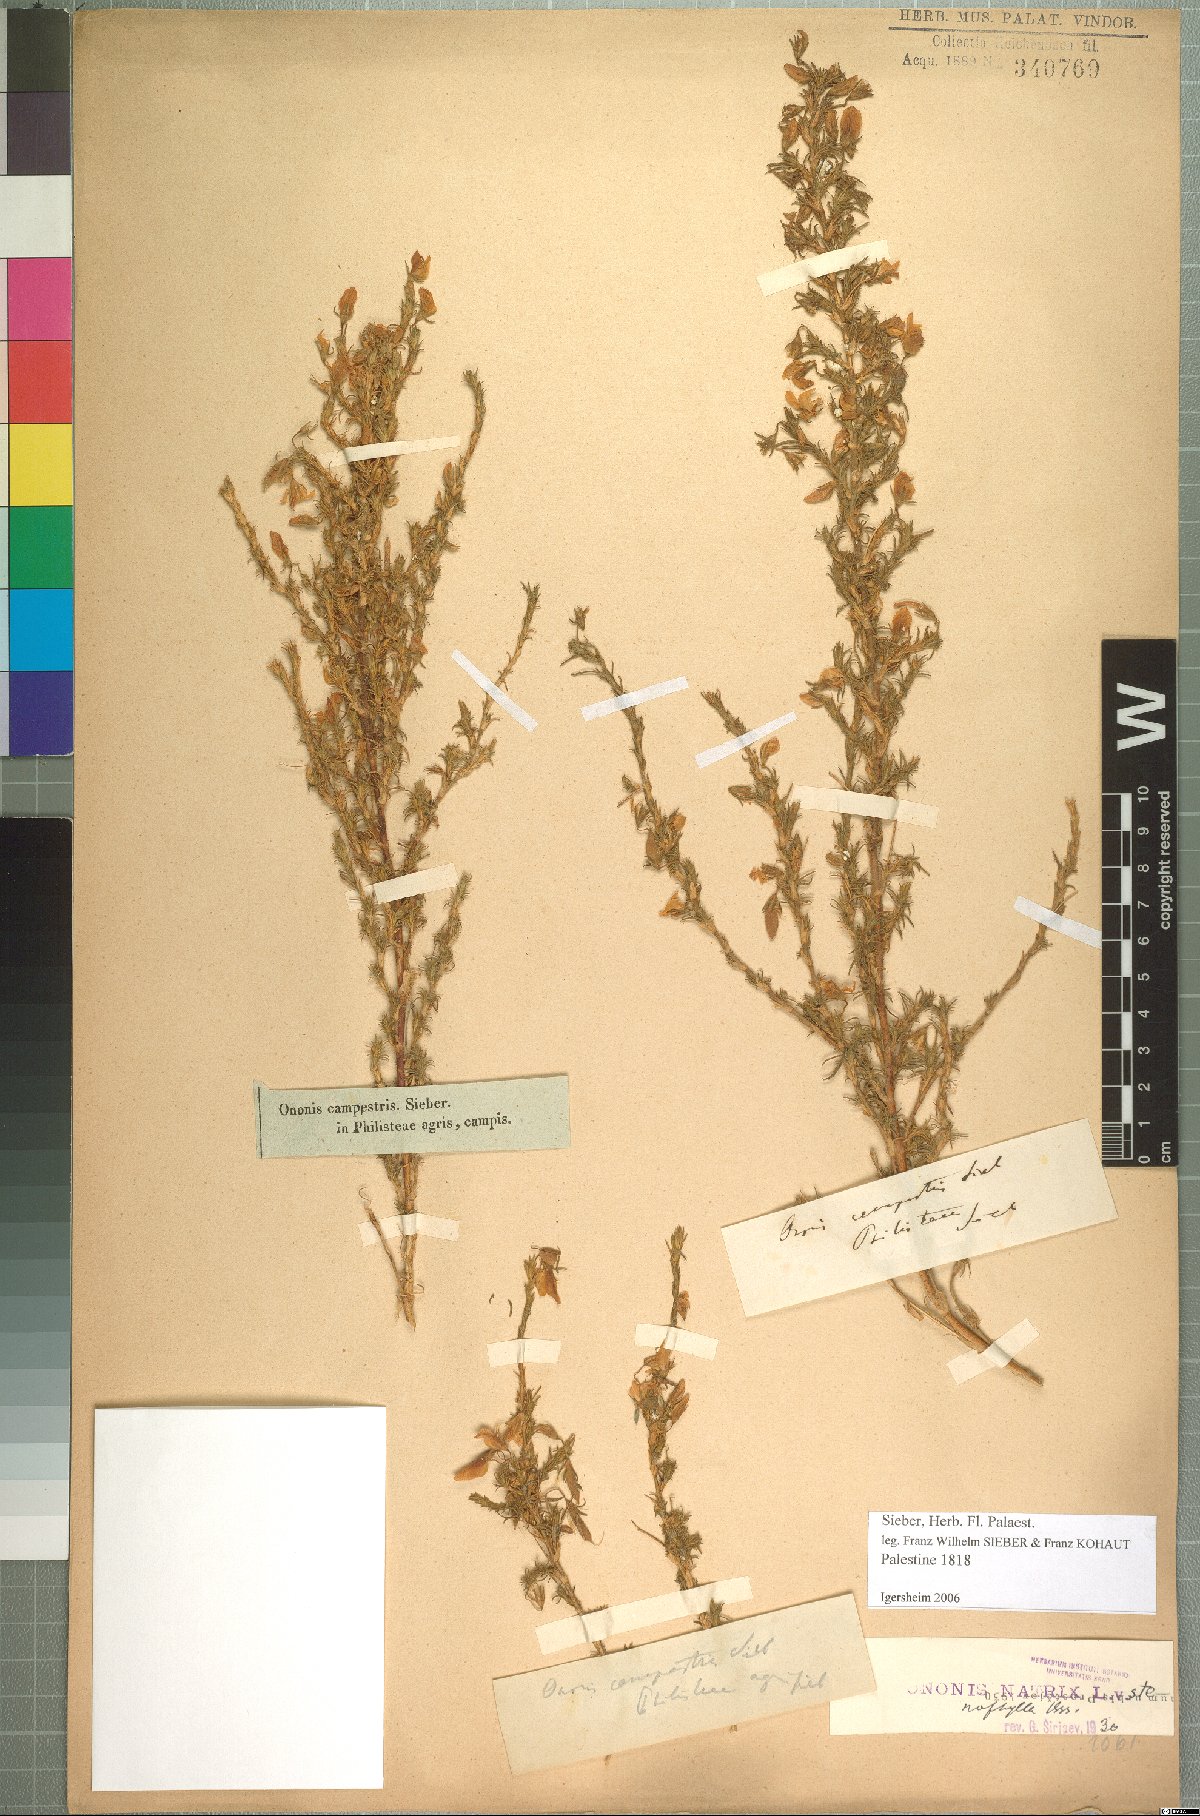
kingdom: Plantae
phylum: Tracheophyta
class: Magnoliopsida
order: Fabales
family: Fabaceae
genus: Ononis
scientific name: Ononis natrix
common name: Yellow restharrow
